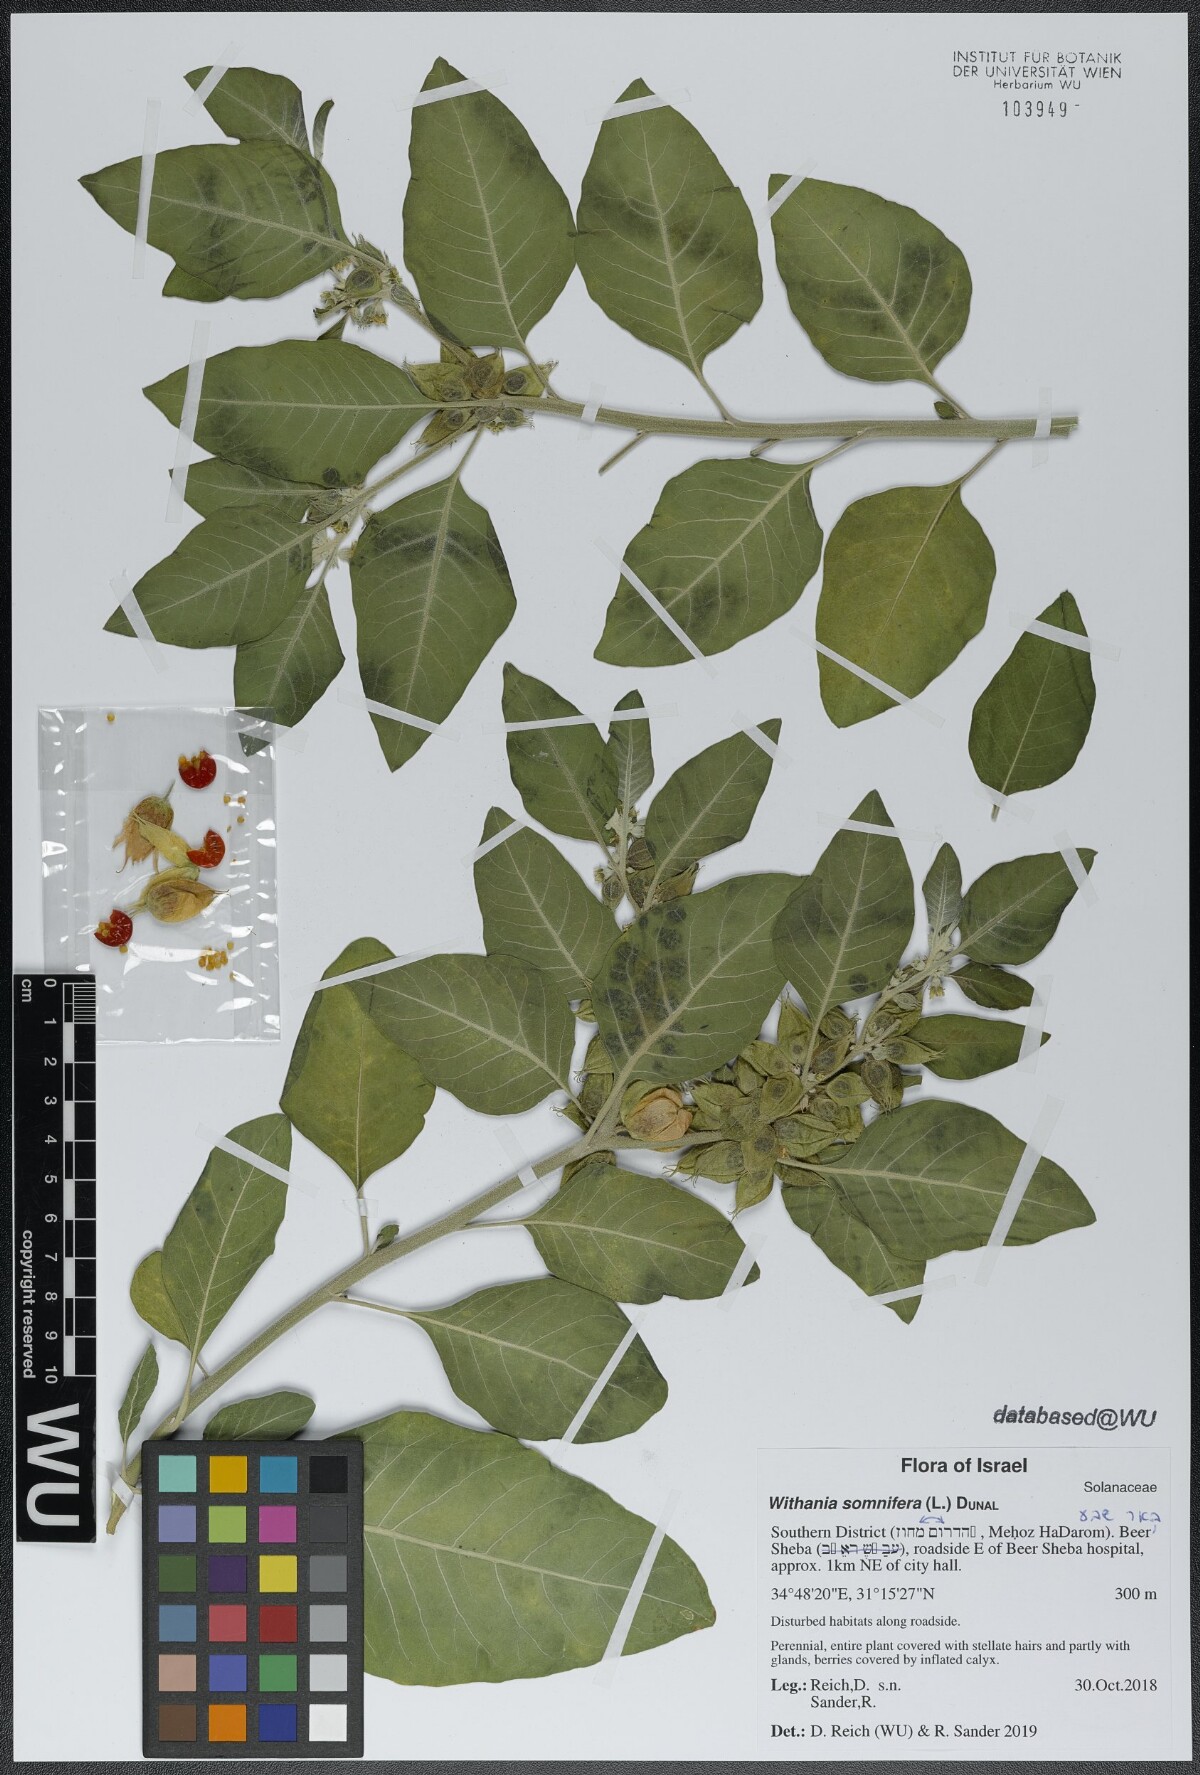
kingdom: Plantae
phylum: Tracheophyta
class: Magnoliopsida
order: Solanales
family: Solanaceae
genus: Withania
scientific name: Withania somnifera
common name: Winter-cherry
